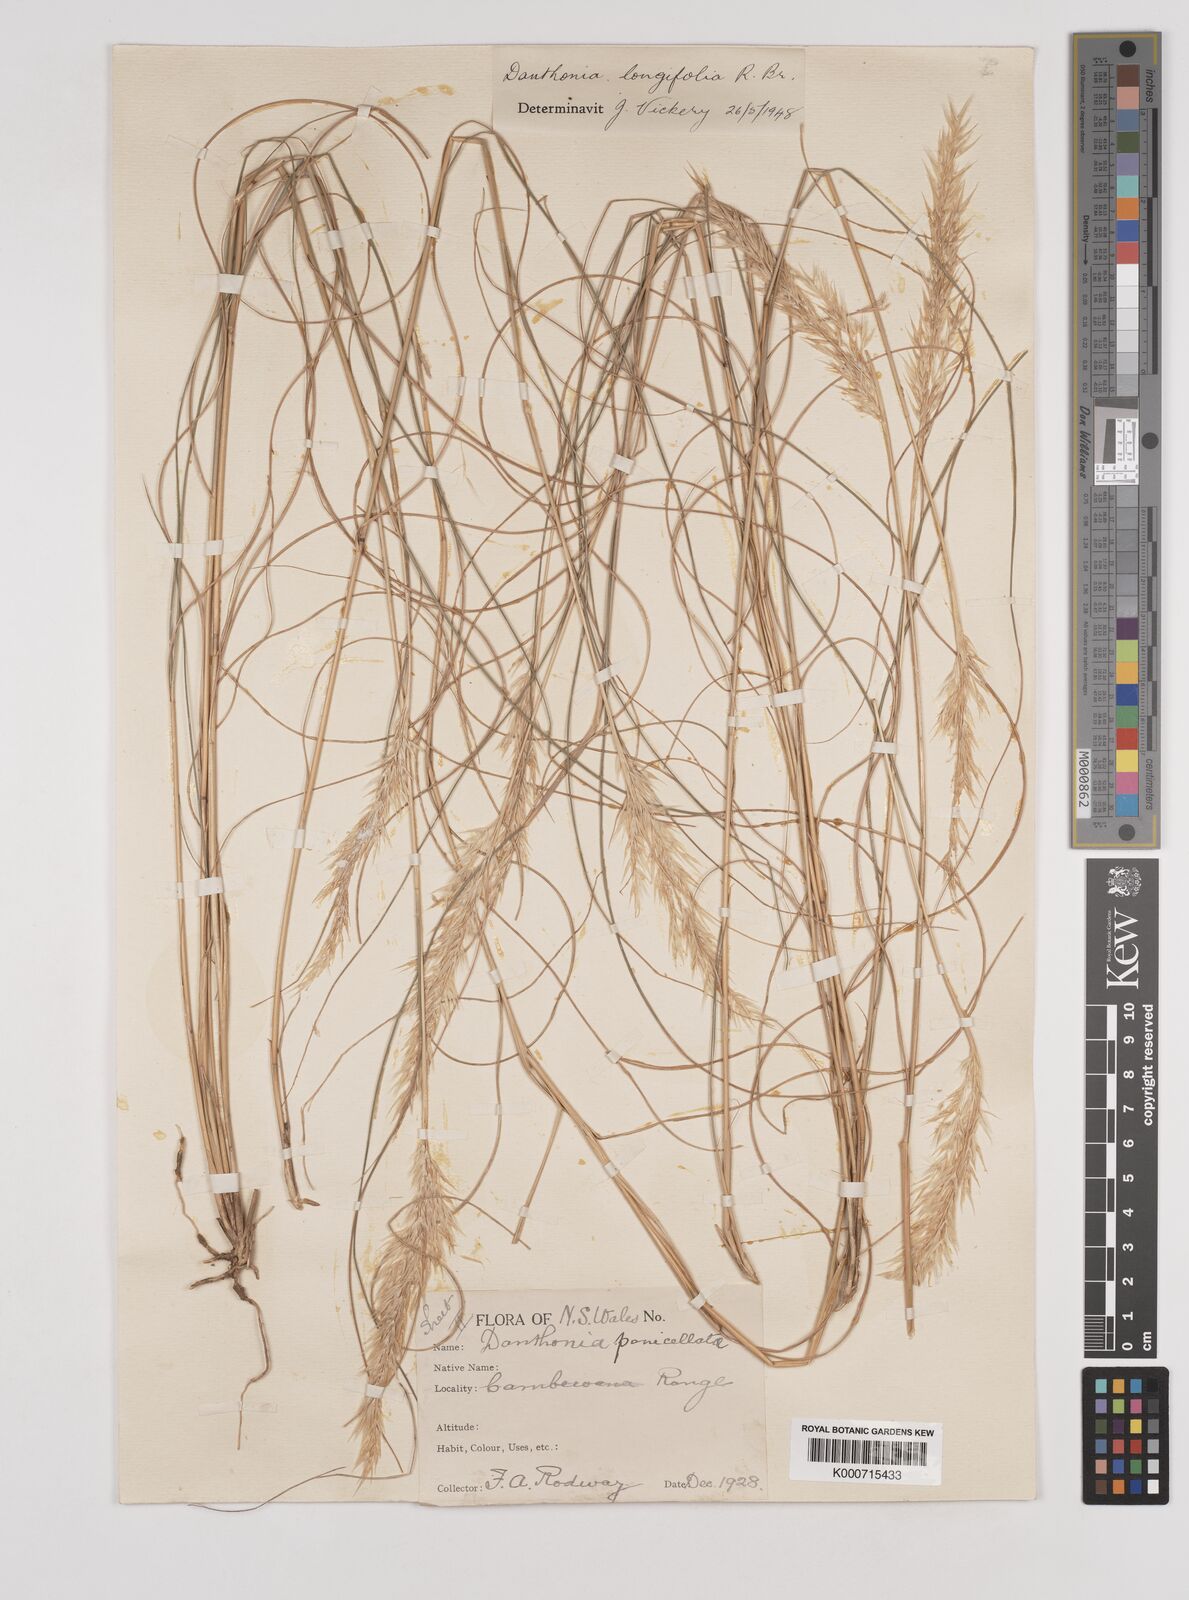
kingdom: Plantae
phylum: Tracheophyta
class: Liliopsida
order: Poales
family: Poaceae
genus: Rytidosperma
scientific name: Rytidosperma longifolium
